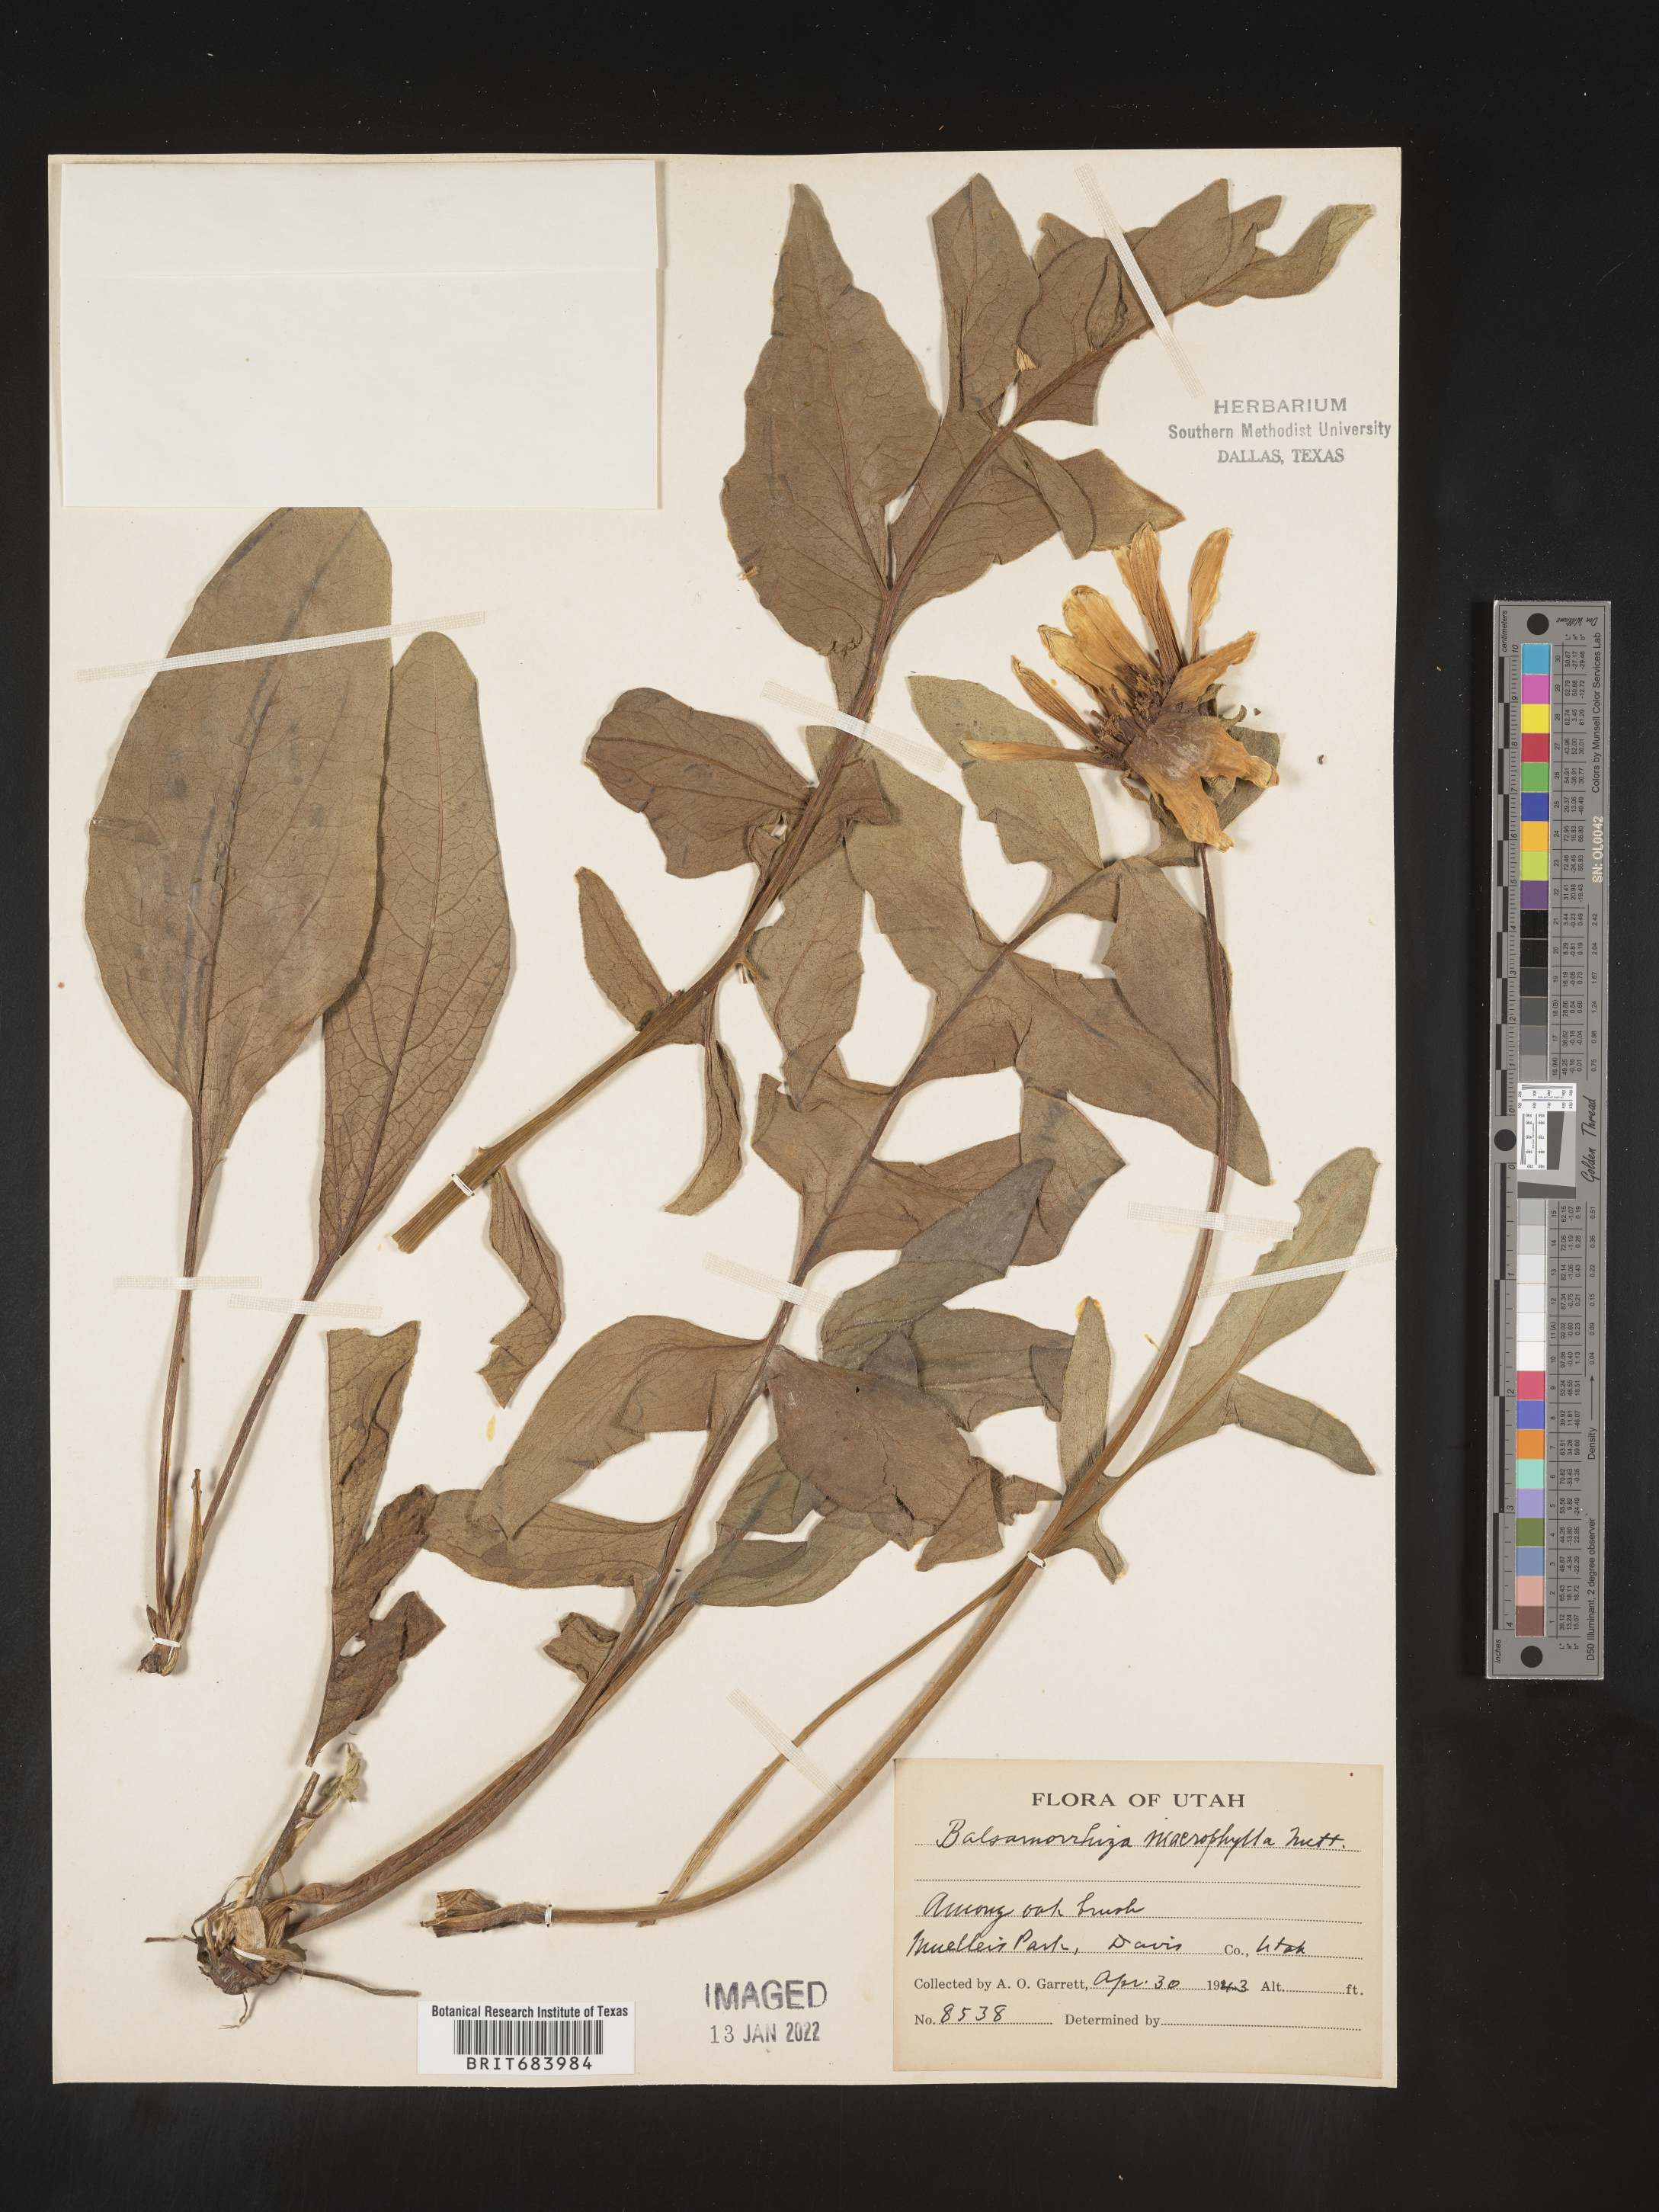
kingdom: Plantae
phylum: Tracheophyta
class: Magnoliopsida
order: Asterales
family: Asteraceae
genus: Balsamorhiza
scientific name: Balsamorhiza
